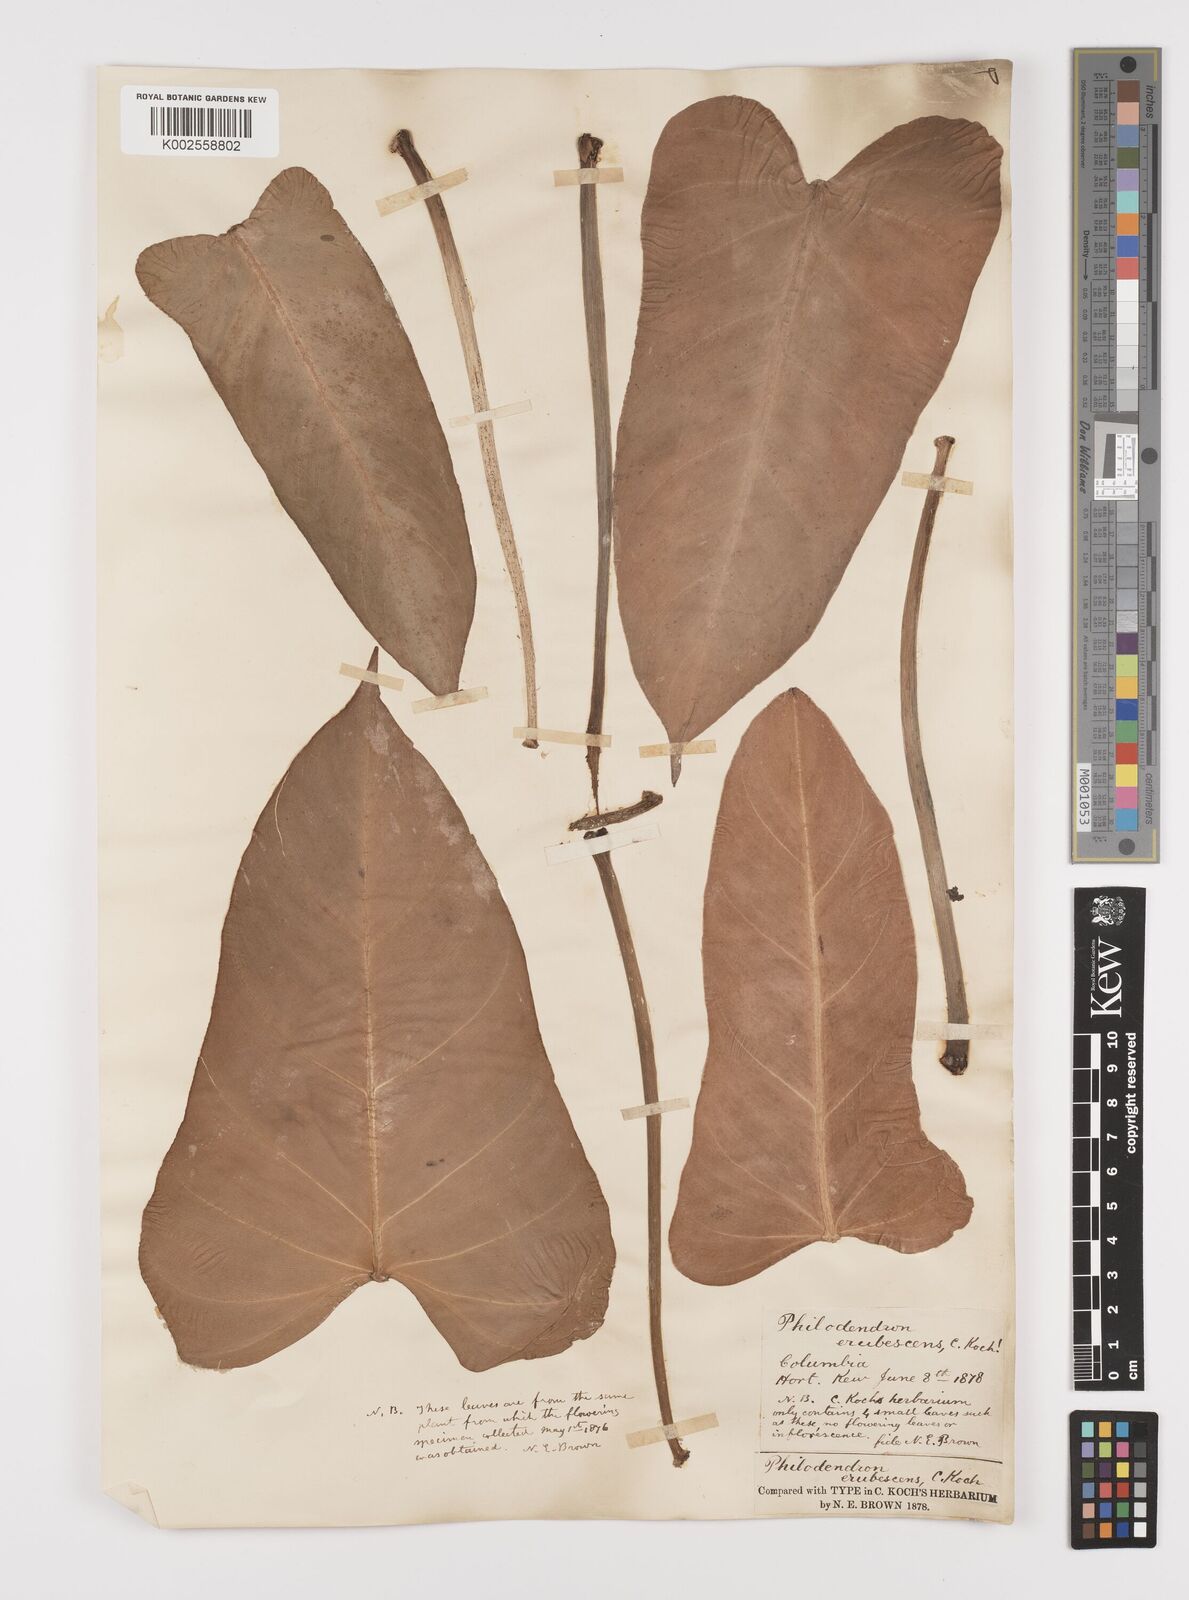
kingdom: Plantae
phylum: Tracheophyta
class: Liliopsida
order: Alismatales
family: Araceae
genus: Philodendron
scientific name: Philodendron erubescens
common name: Philodendron
